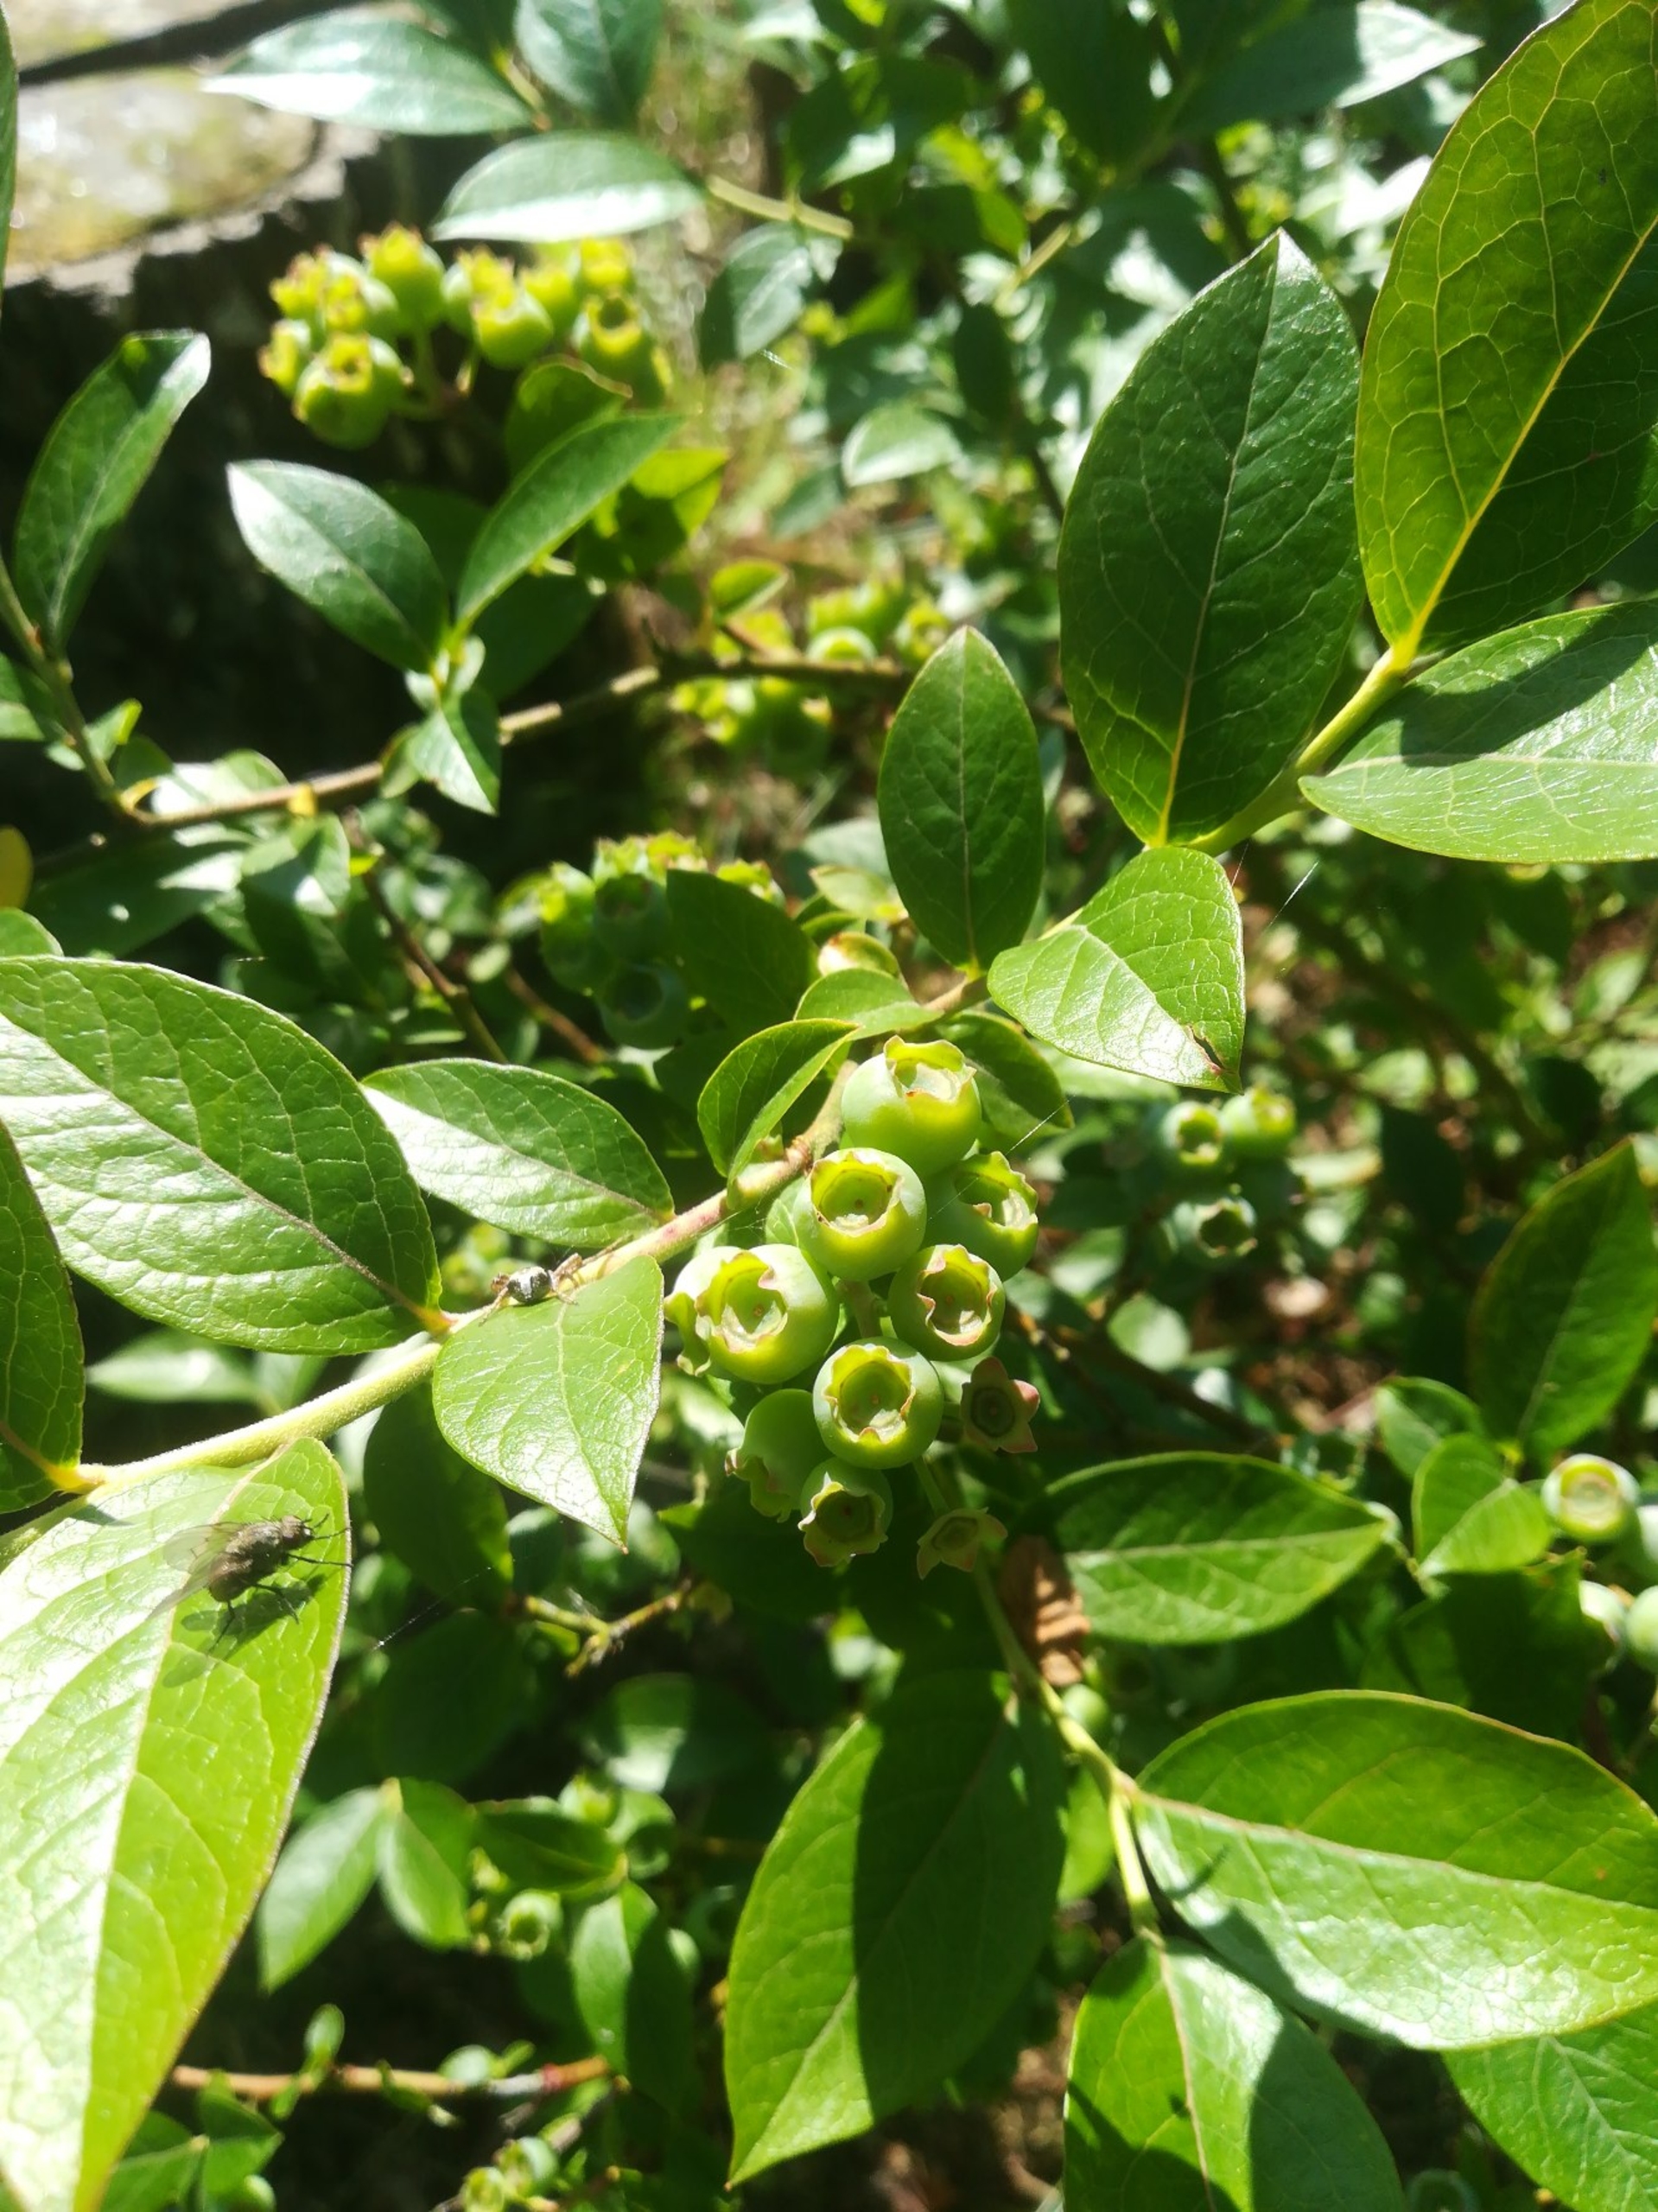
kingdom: Plantae
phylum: Tracheophyta
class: Magnoliopsida
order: Ericales
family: Ericaceae
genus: Vaccinium
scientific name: Vaccinium corymbosum
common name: Amerikansk blåbær
